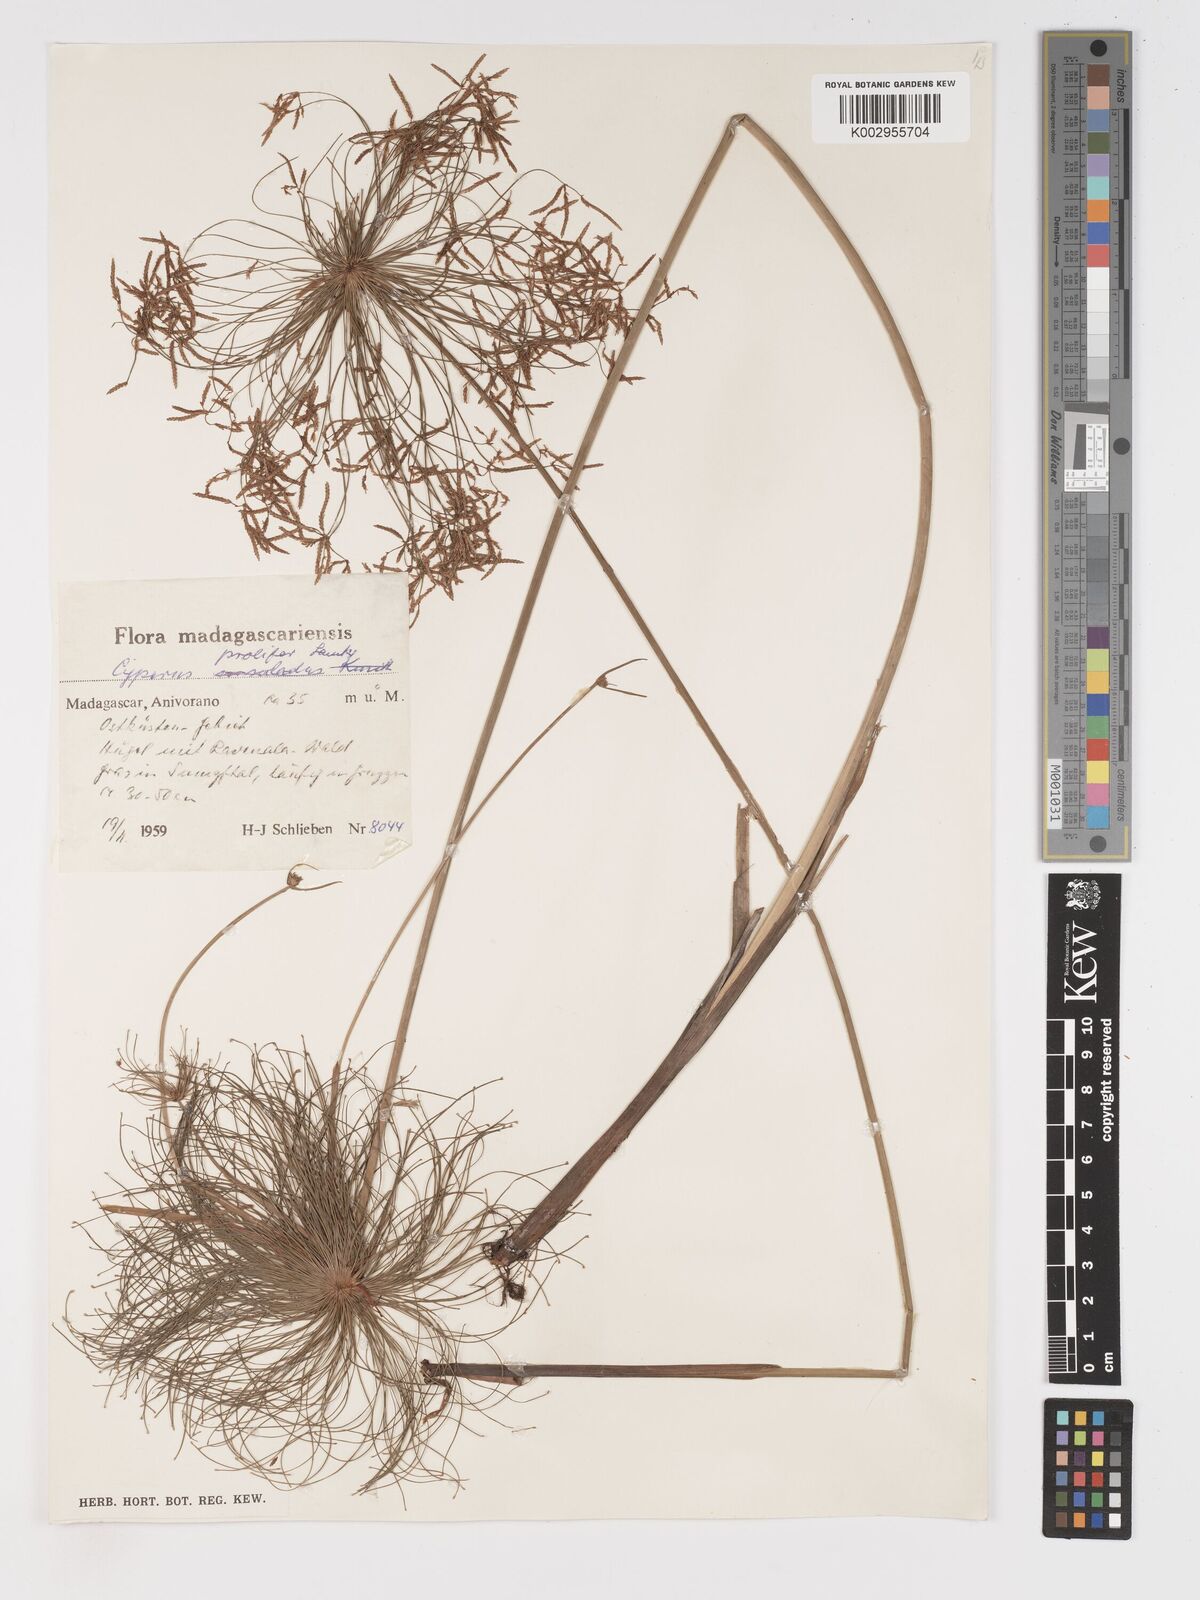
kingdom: Plantae
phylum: Tracheophyta
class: Liliopsida
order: Poales
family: Cyperaceae
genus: Cyperus
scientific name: Cyperus prolifer
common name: Miniature flatsedge
